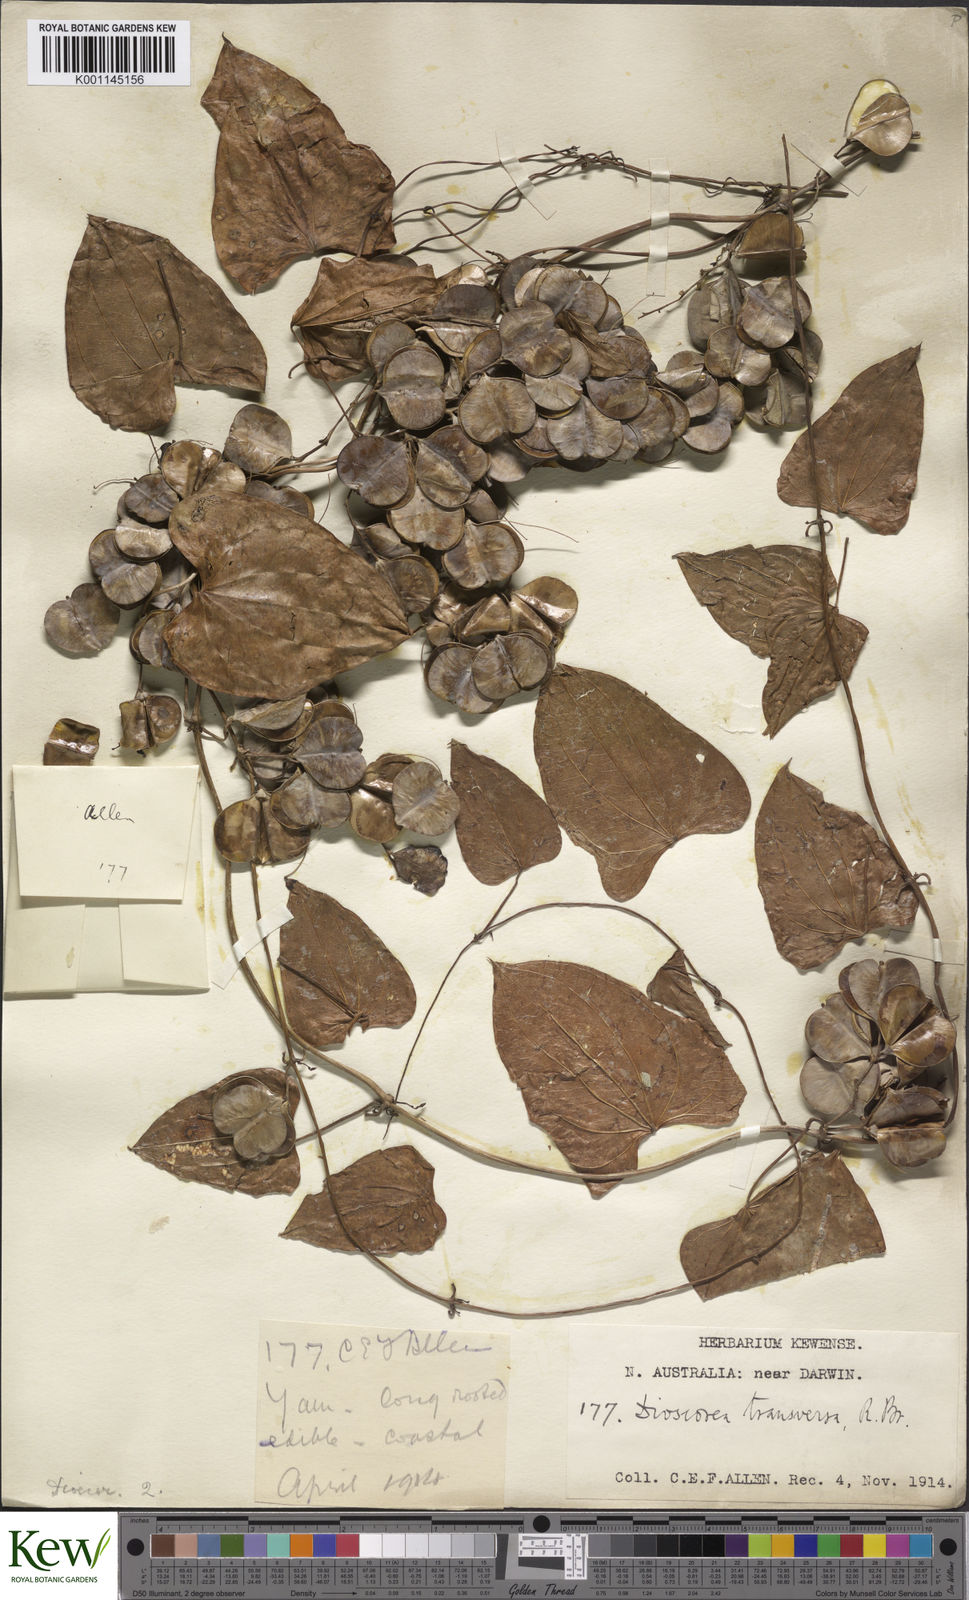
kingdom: Plantae
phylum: Tracheophyta
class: Liliopsida
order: Dioscoreales
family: Dioscoreaceae
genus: Dioscorea
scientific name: Dioscorea transversa
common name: Long yam
